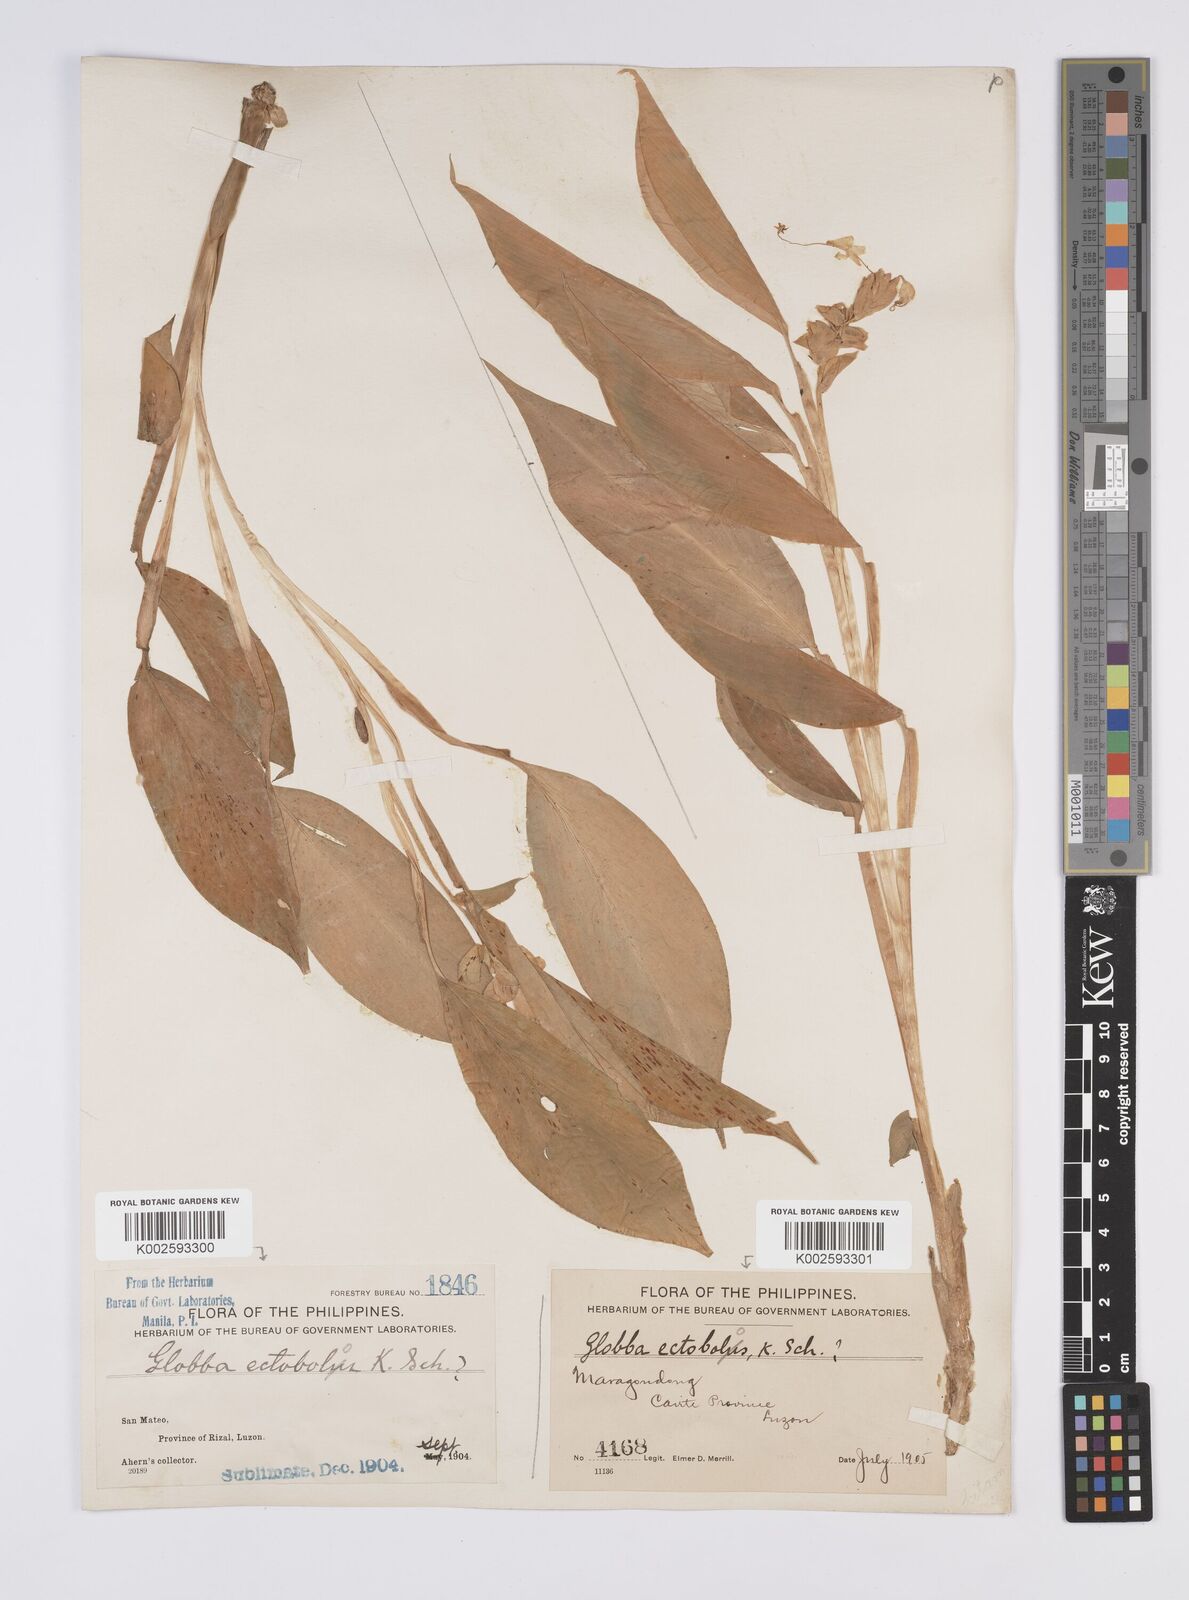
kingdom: Plantae
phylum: Tracheophyta
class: Liliopsida
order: Zingiberales
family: Zingiberaceae
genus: Globba
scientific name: Globba marantina
